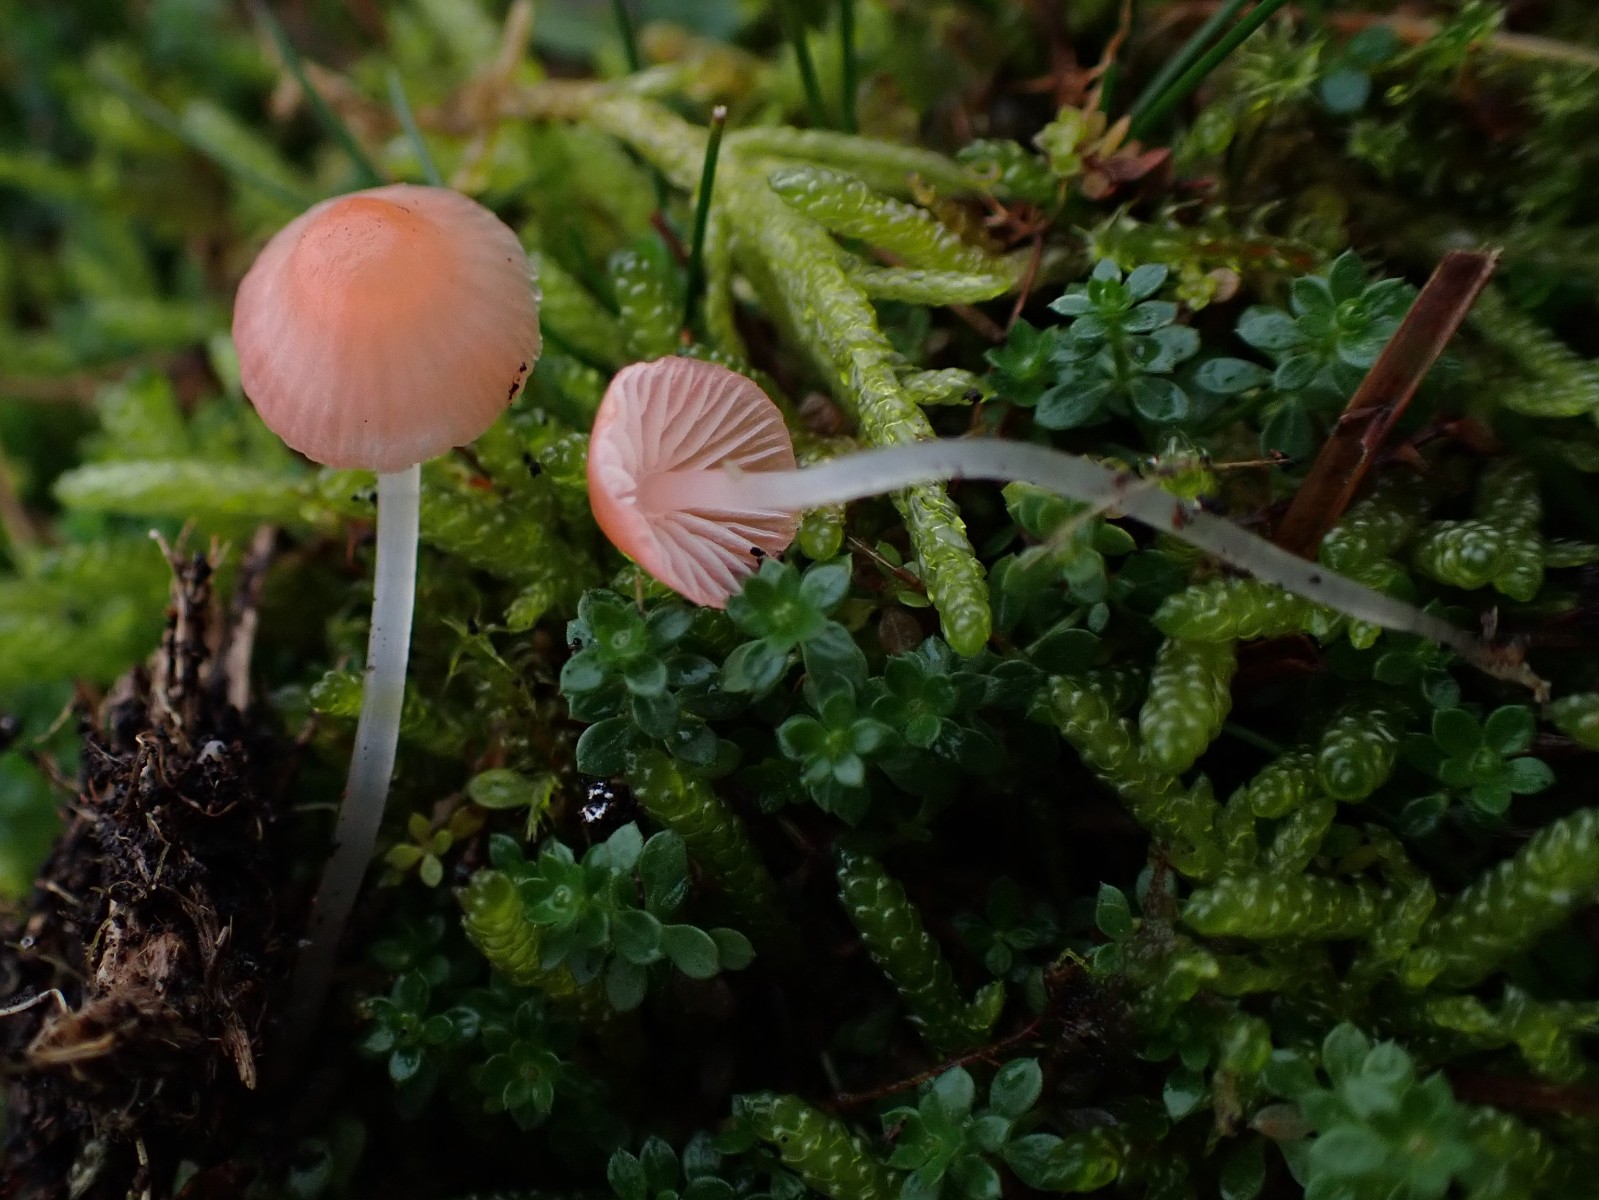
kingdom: Fungi
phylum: Basidiomycota
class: Agaricomycetes
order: Agaricales
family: Mycenaceae
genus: Atheniella
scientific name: Atheniella adonis
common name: rønnerød huesvamp
